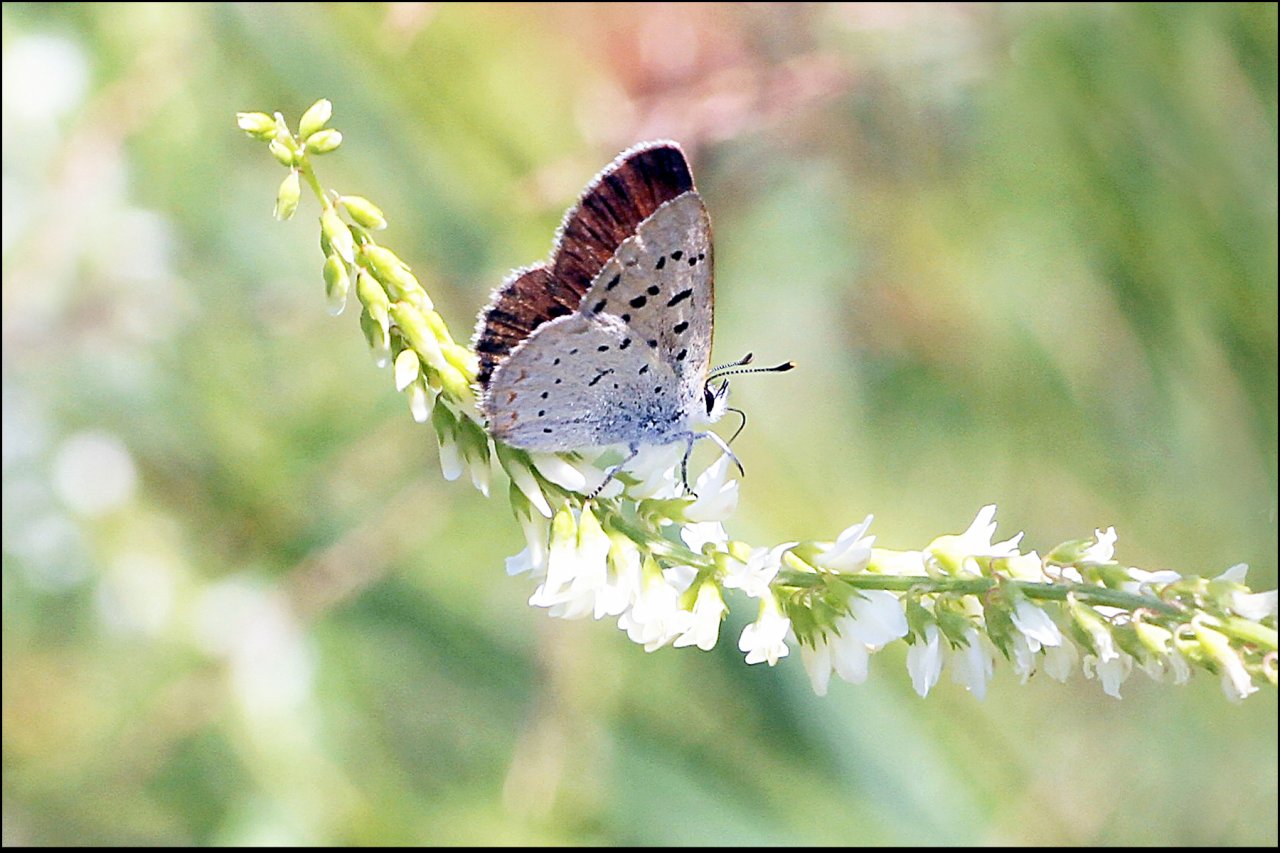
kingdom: Animalia
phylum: Arthropoda
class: Insecta
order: Lepidoptera
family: Sesiidae
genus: Sesia
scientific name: Sesia Lycaena epixanthe
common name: Bog Copper
